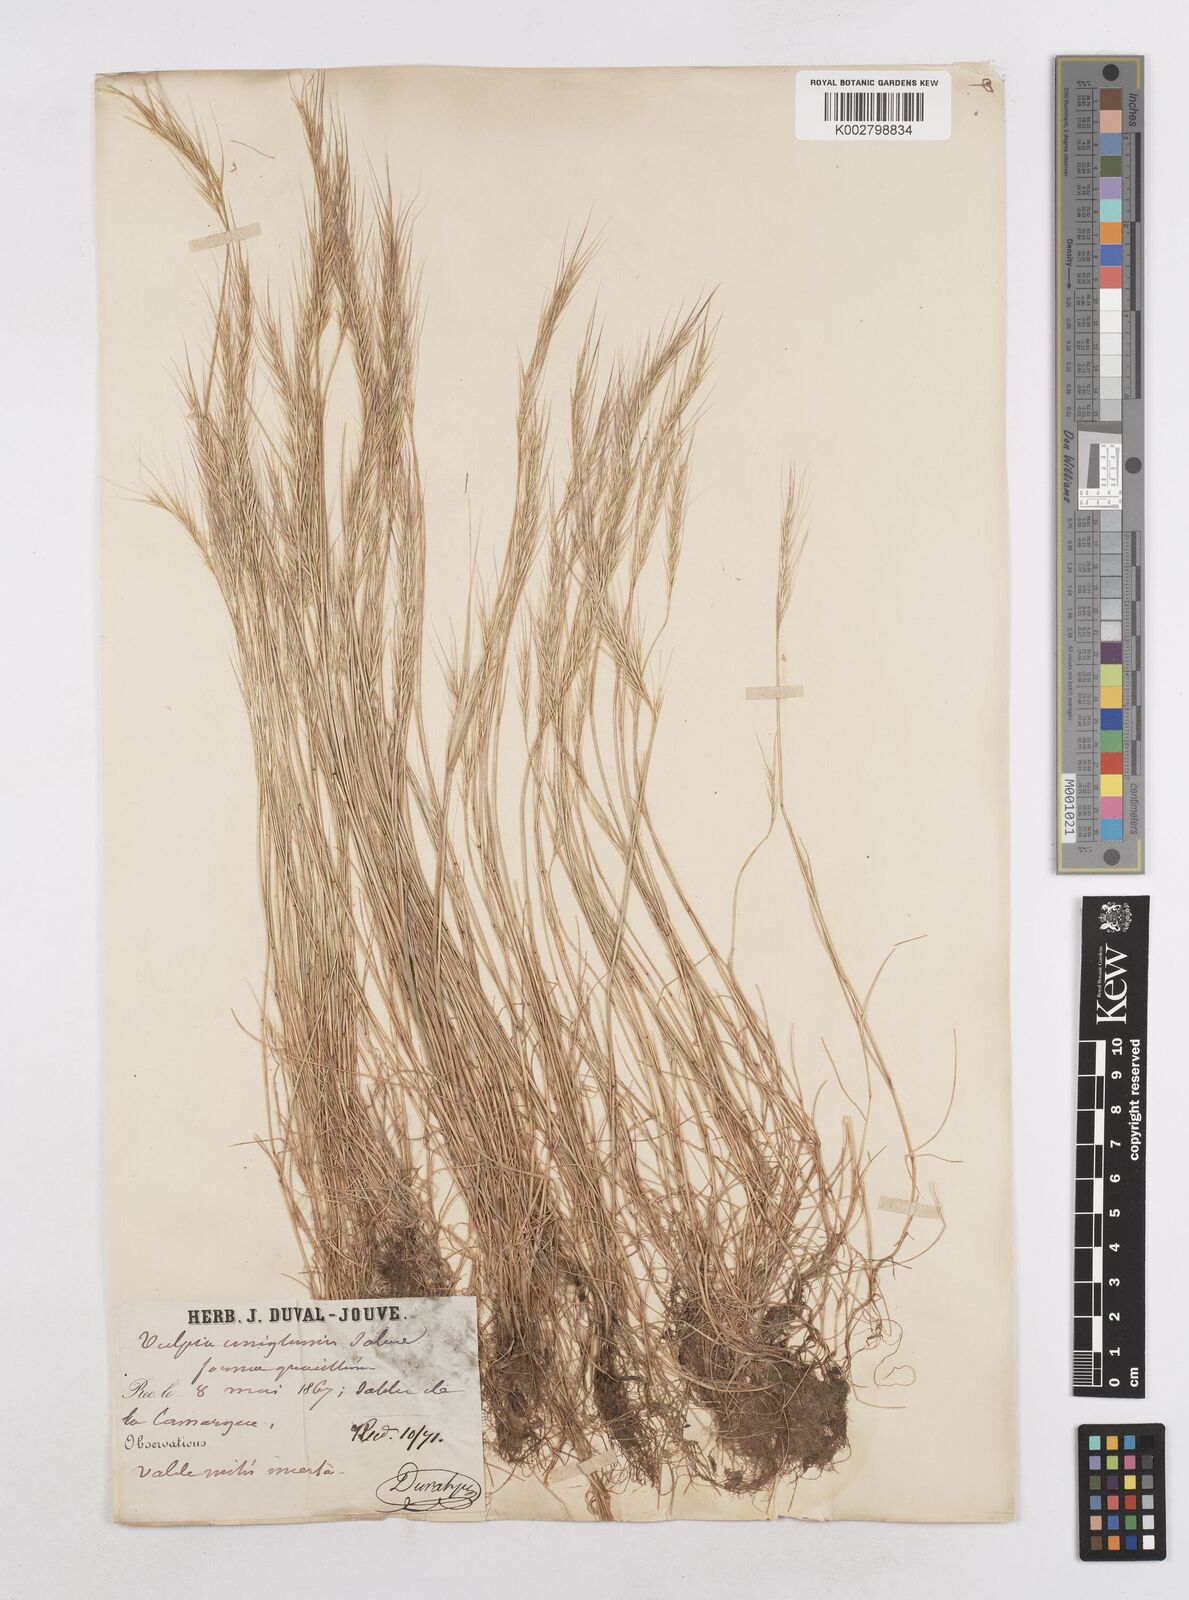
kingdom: Plantae
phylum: Tracheophyta
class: Liliopsida
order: Poales
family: Poaceae
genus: Festuca
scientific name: Festuca membranacea
